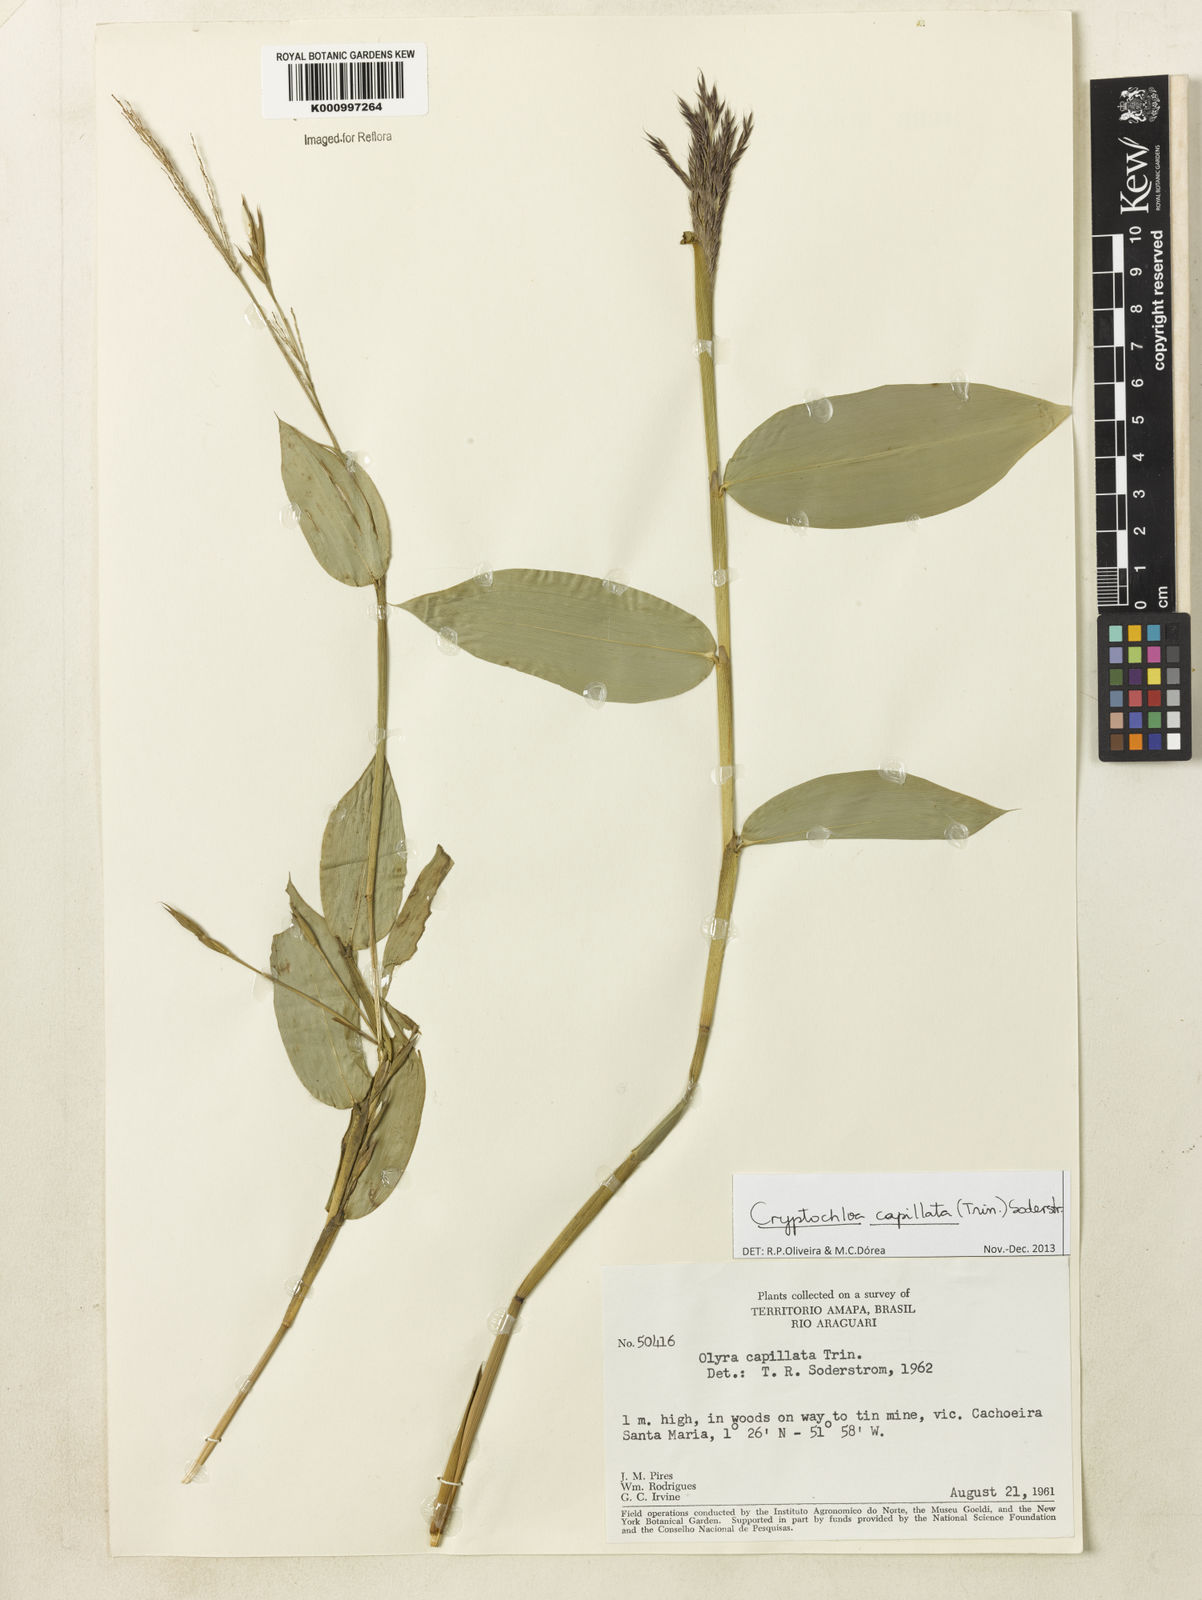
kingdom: Plantae
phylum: Tracheophyta
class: Liliopsida
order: Poales
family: Poaceae
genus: Cryptochloa
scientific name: Cryptochloa capillata
